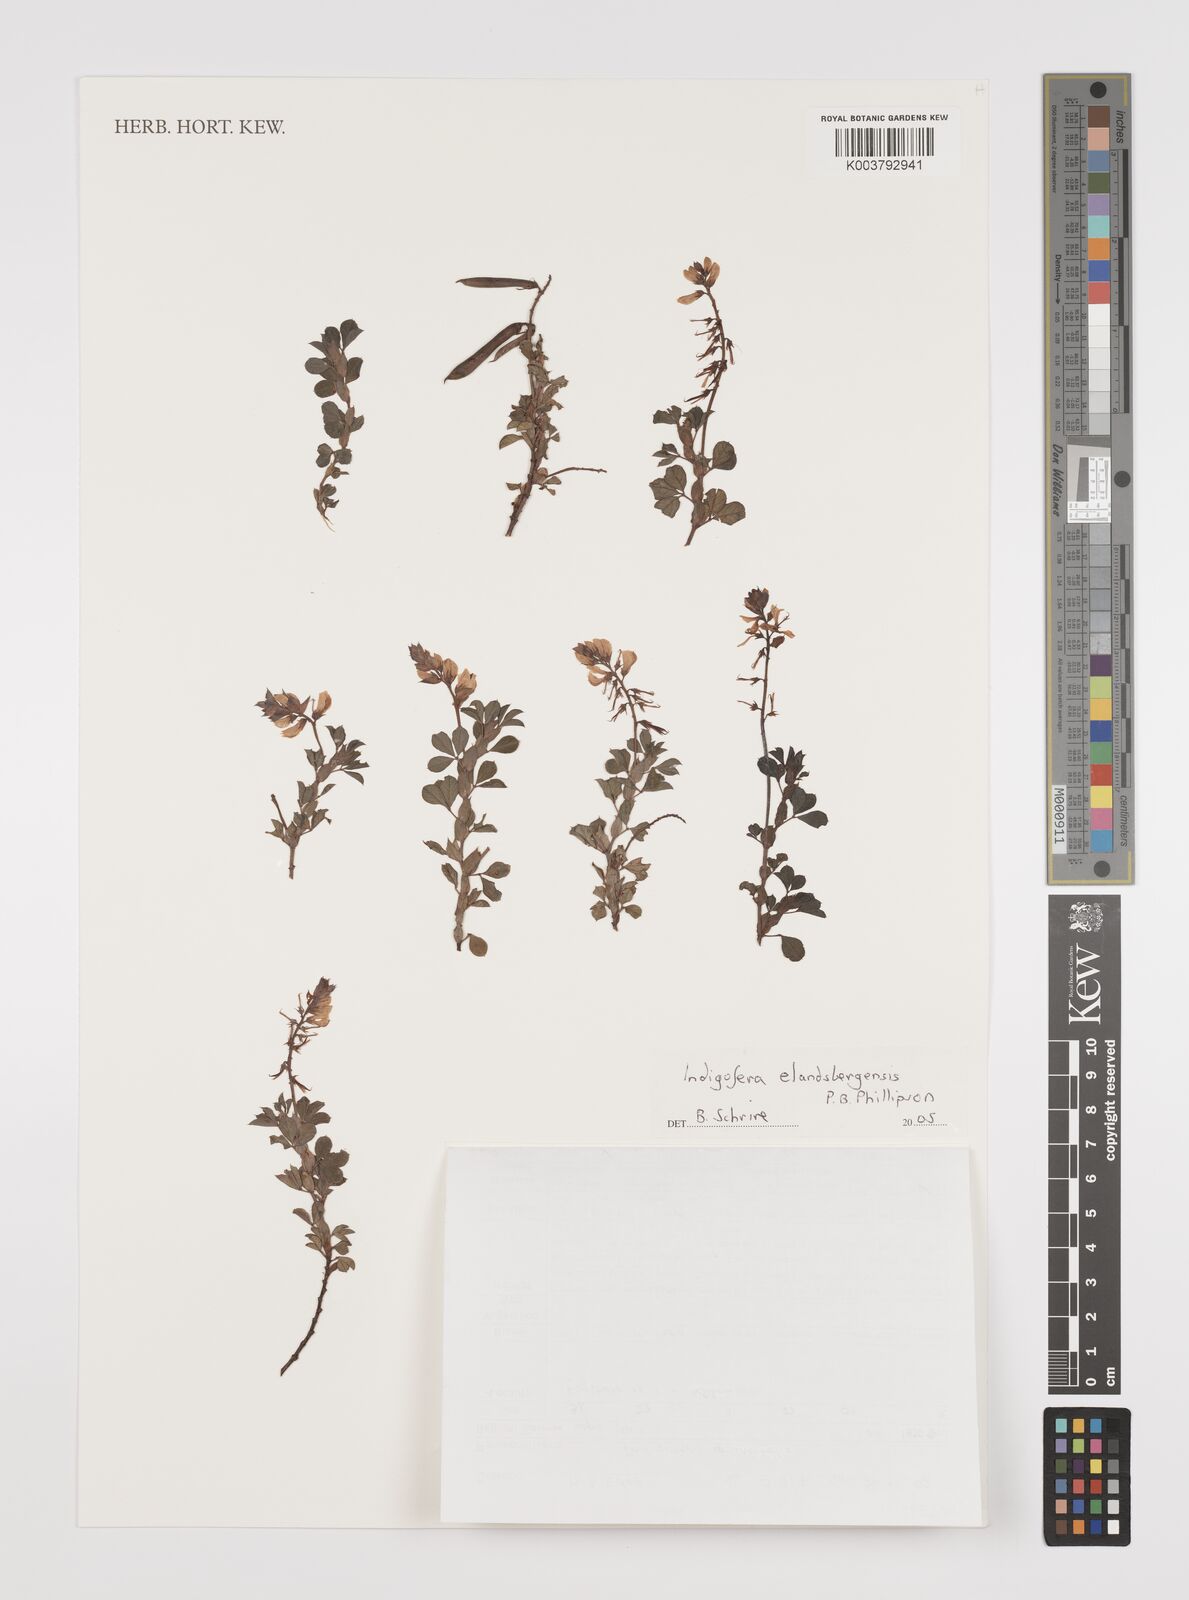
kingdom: Plantae
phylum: Tracheophyta
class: Magnoliopsida
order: Fabales
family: Fabaceae
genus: Indigofera
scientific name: Indigofera elandsbergensis
